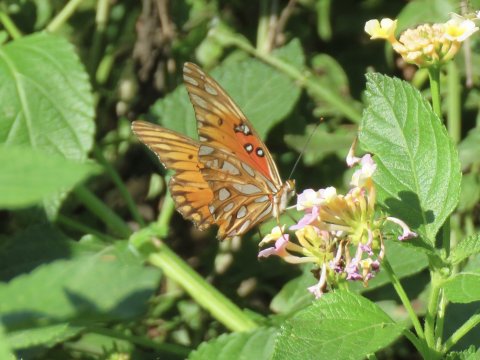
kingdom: Animalia
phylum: Arthropoda
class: Insecta
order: Lepidoptera
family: Nymphalidae
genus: Dione
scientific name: Dione vanillae
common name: Gulf Fritillary
